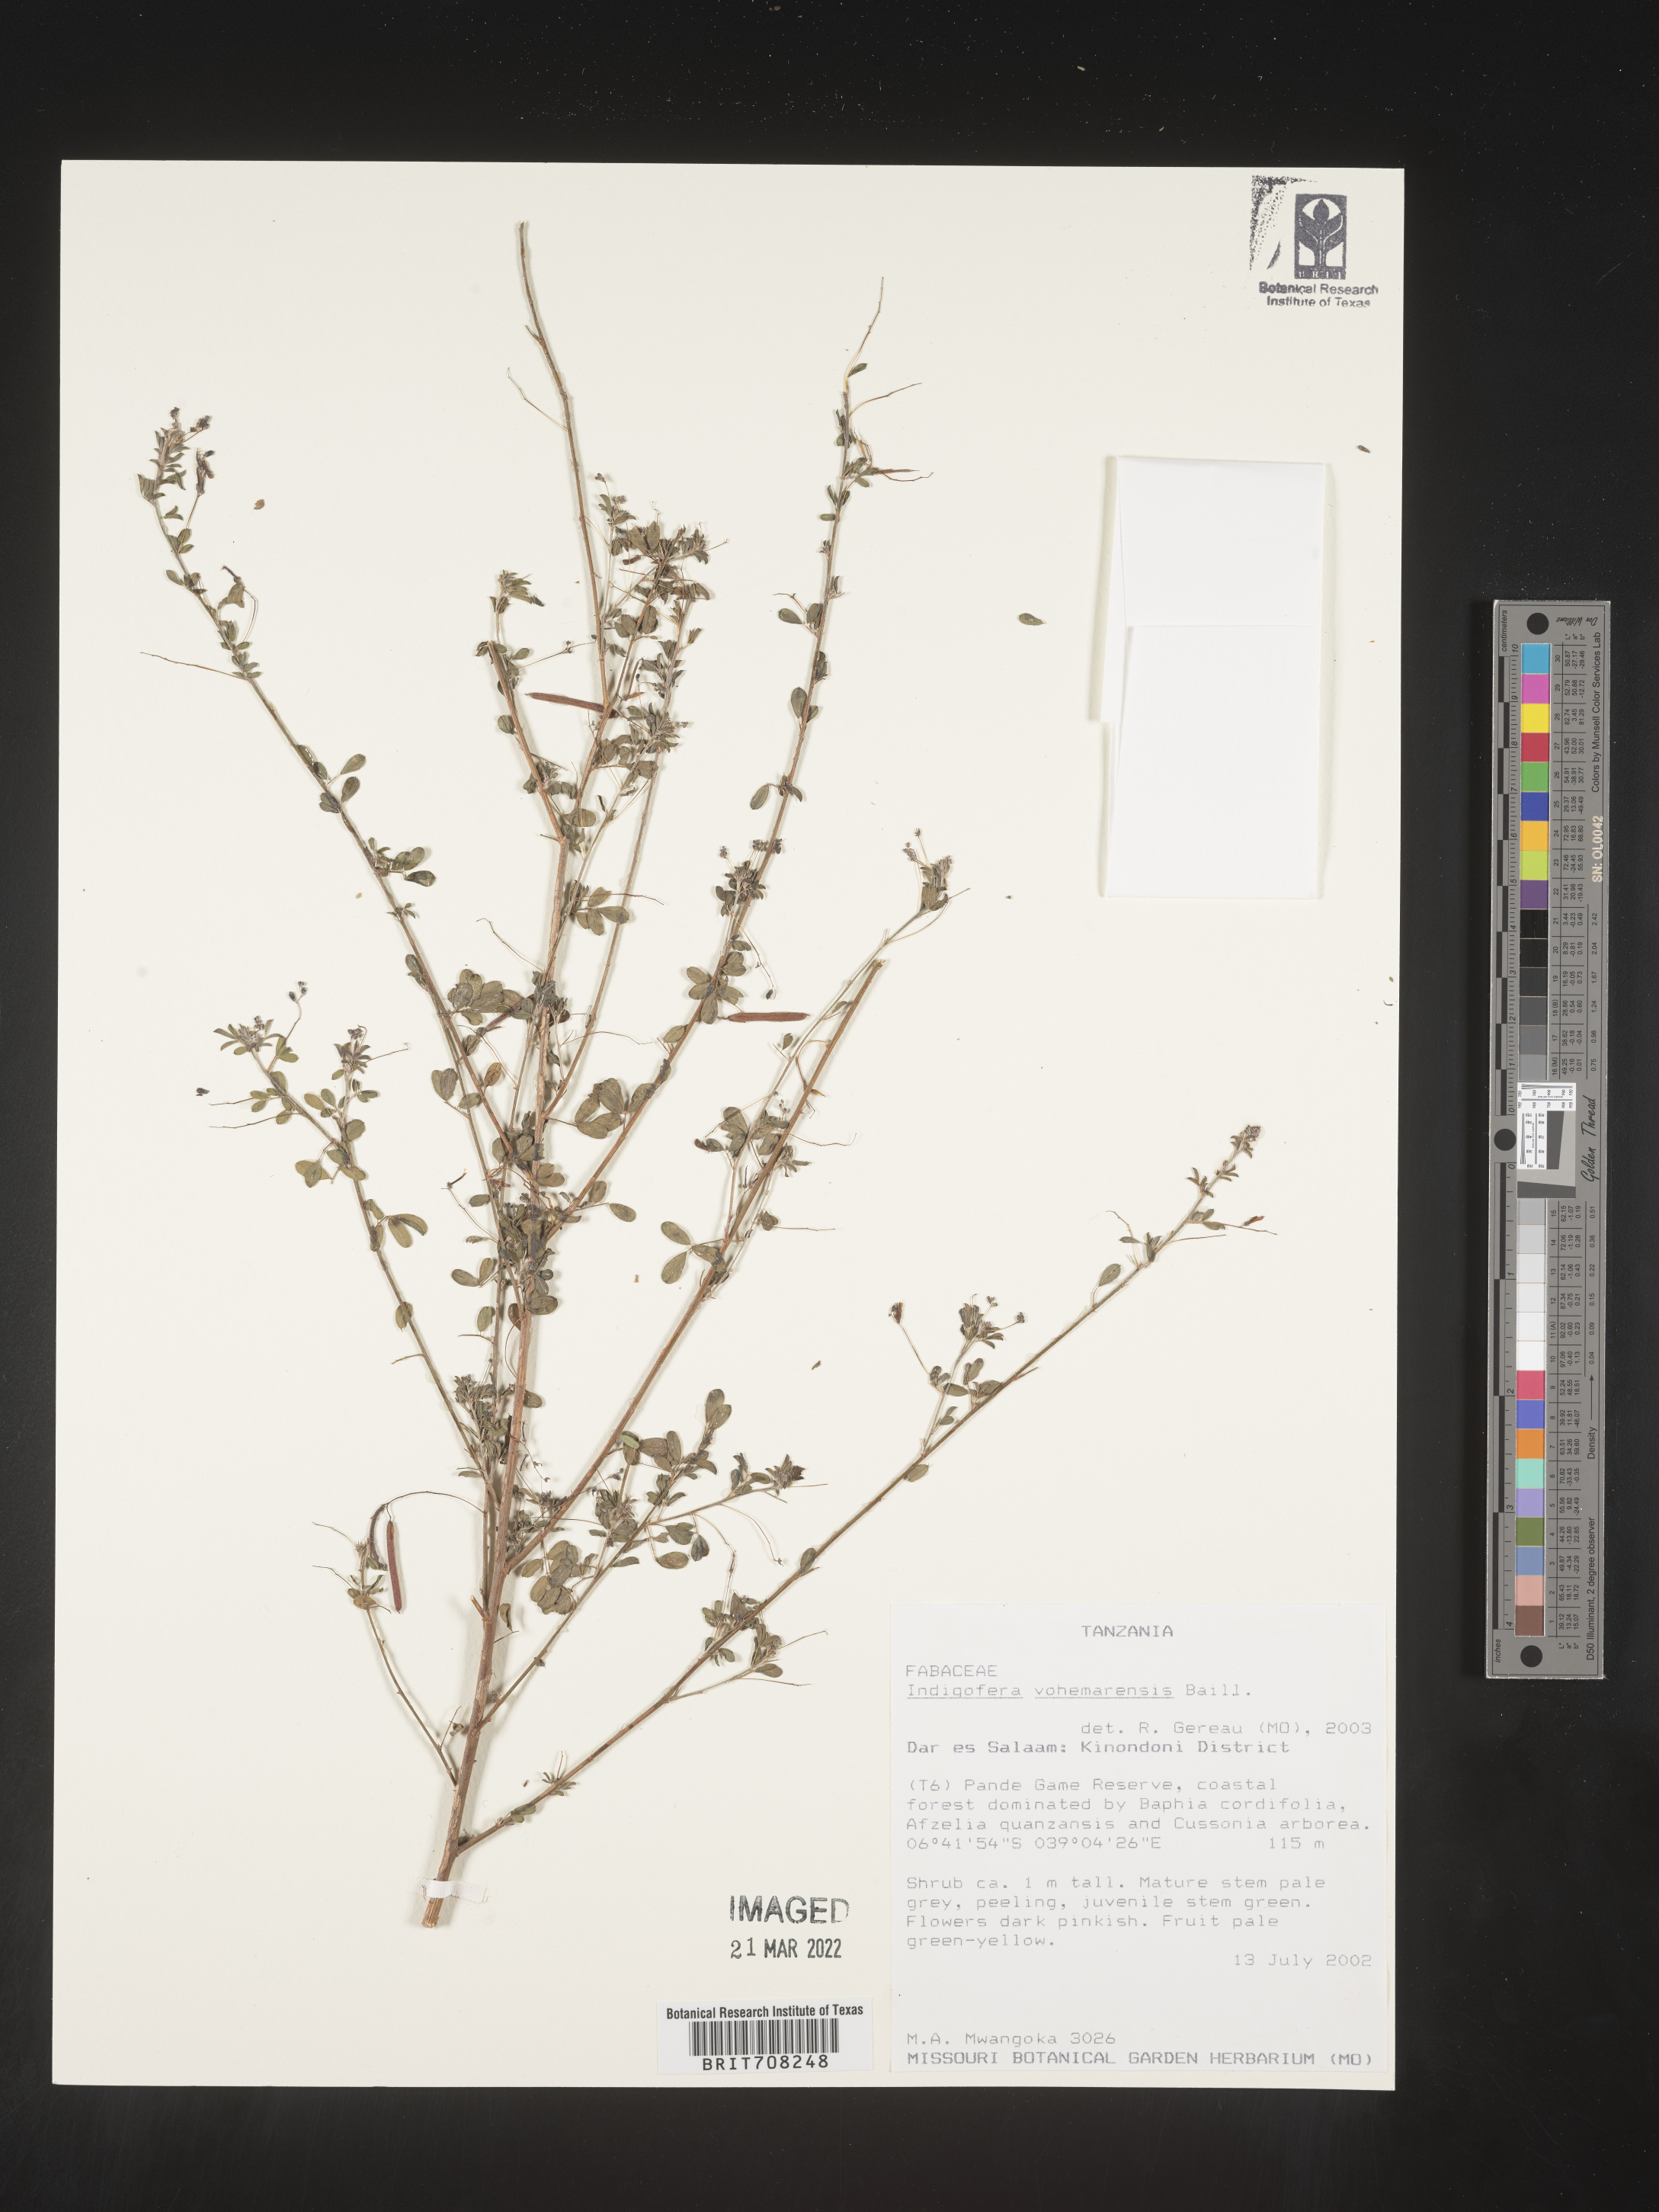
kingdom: Plantae
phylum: Tracheophyta
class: Magnoliopsida
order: Fabales
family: Fabaceae
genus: Indigofera
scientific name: Indigofera
